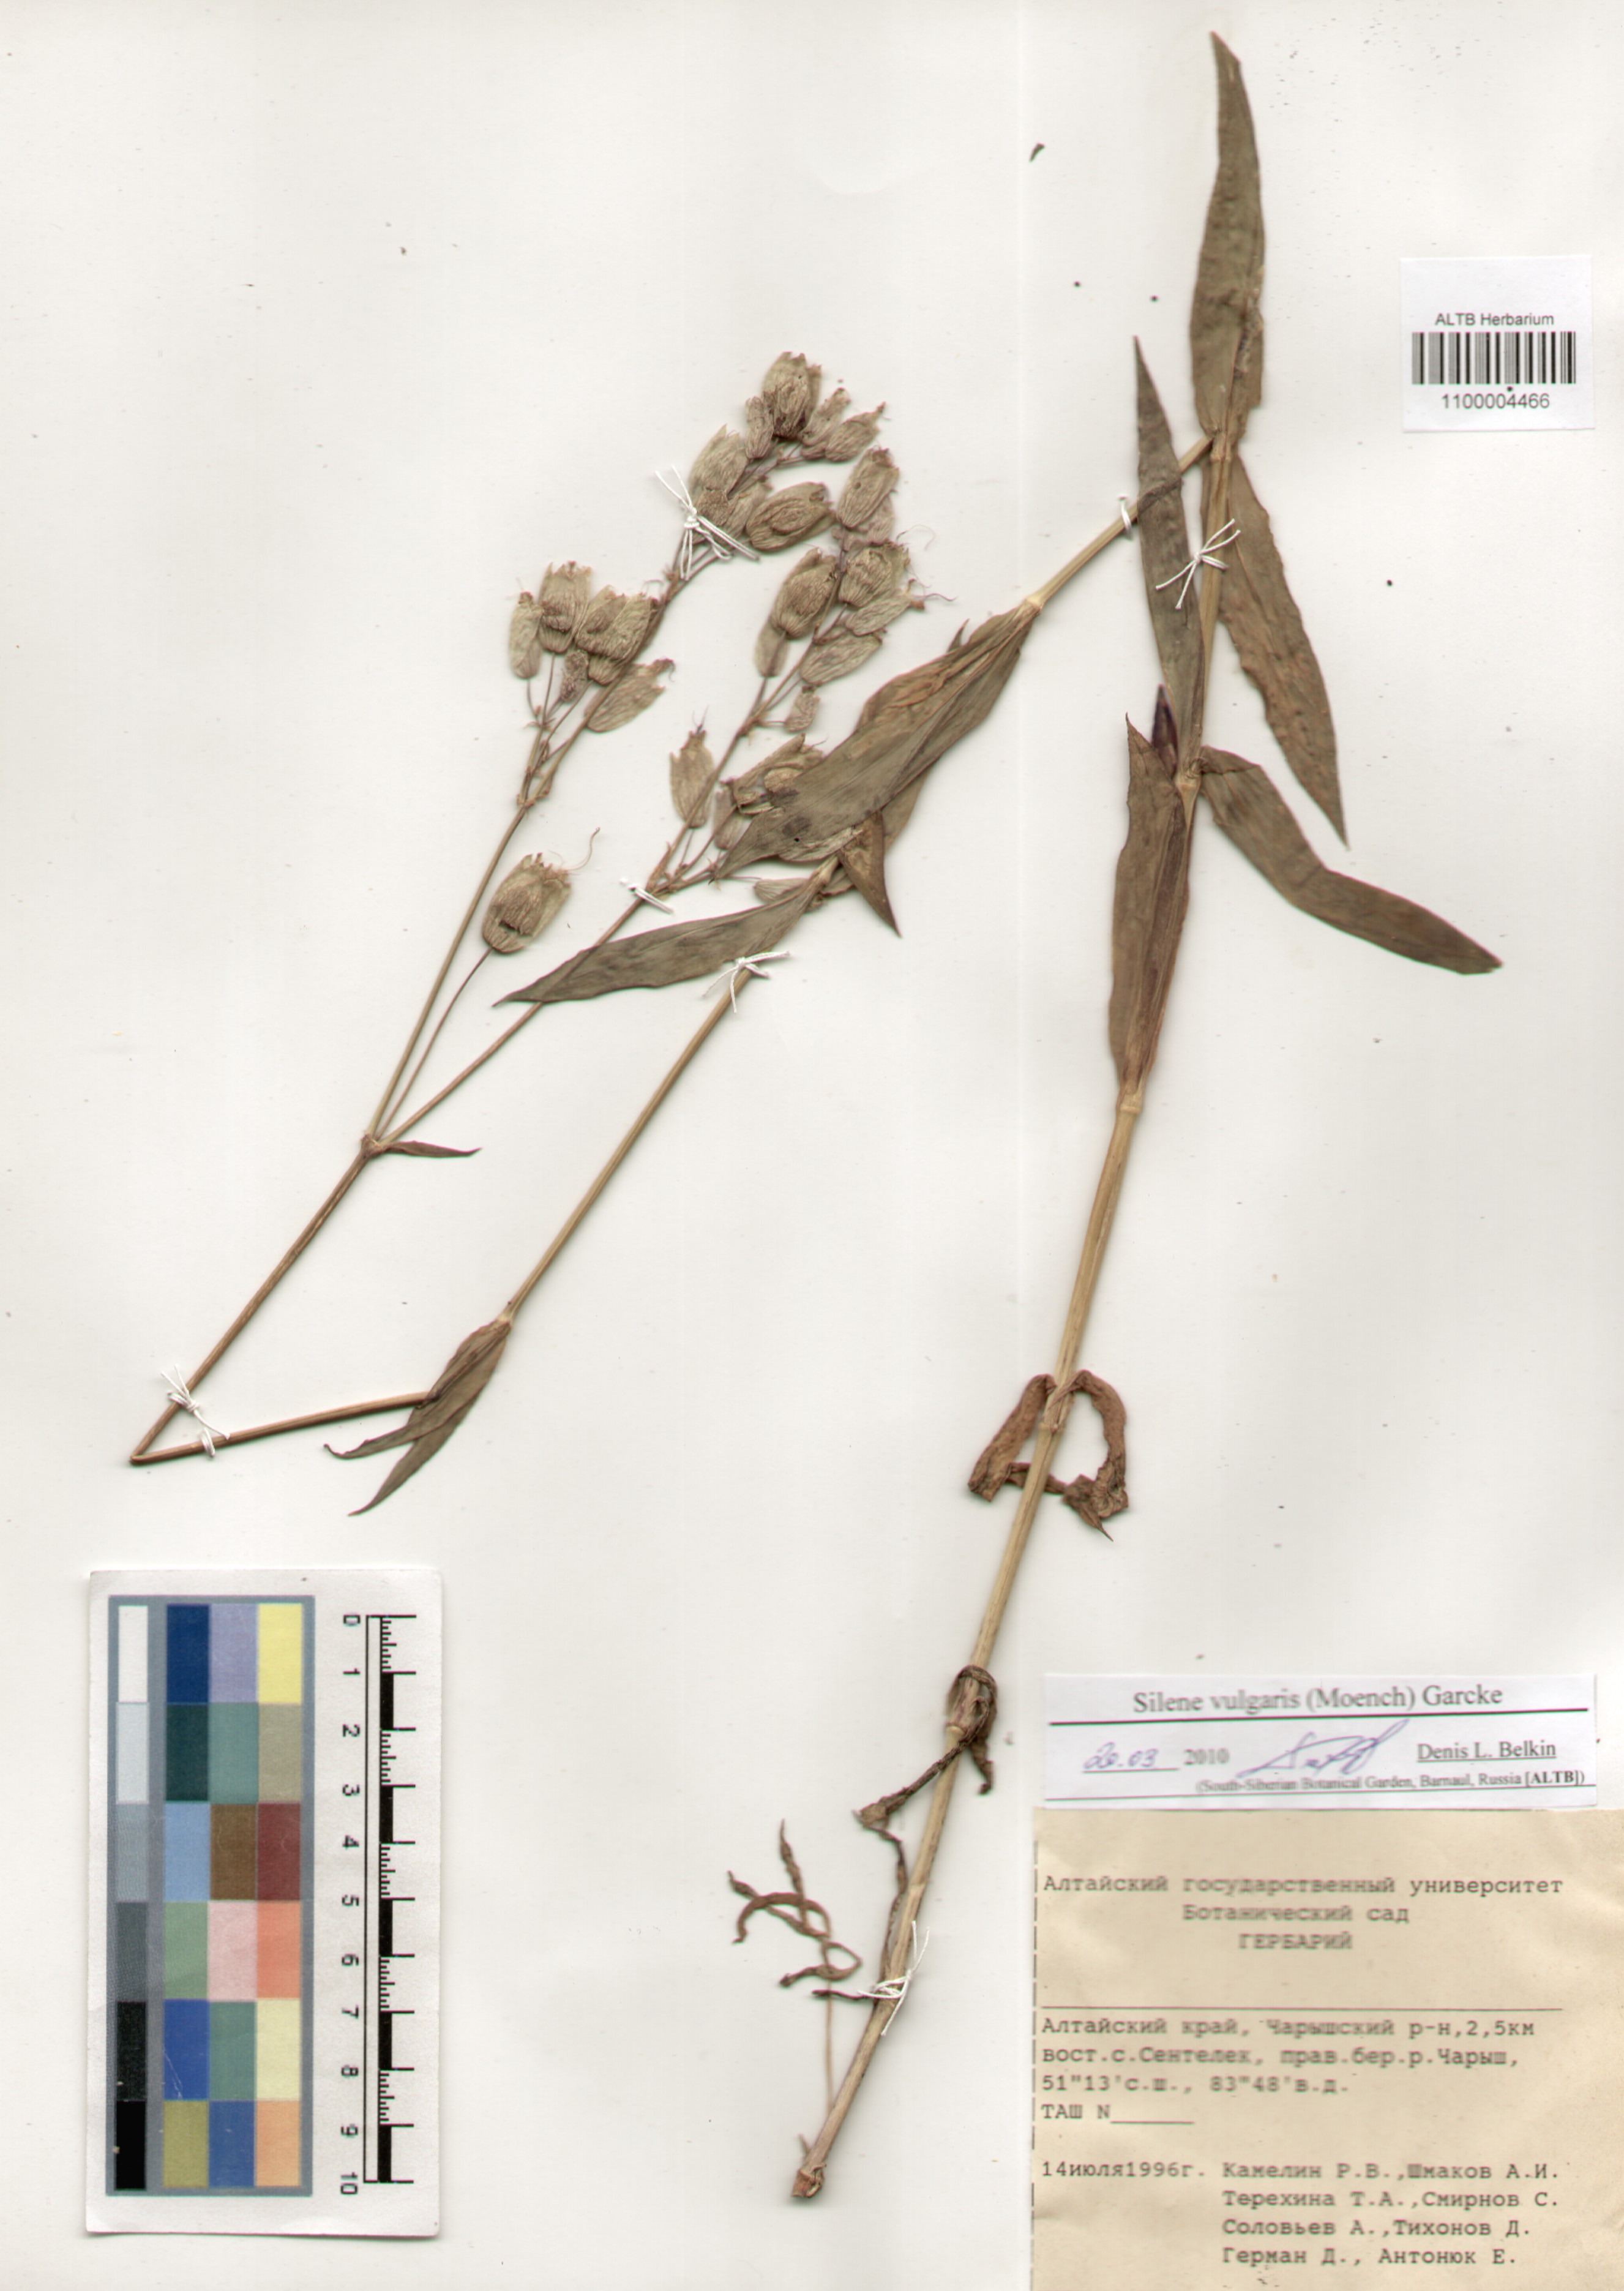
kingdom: Plantae
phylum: Tracheophyta
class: Magnoliopsida
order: Caryophyllales
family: Caryophyllaceae
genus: Silene
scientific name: Silene vulgaris
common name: Bladder campion
